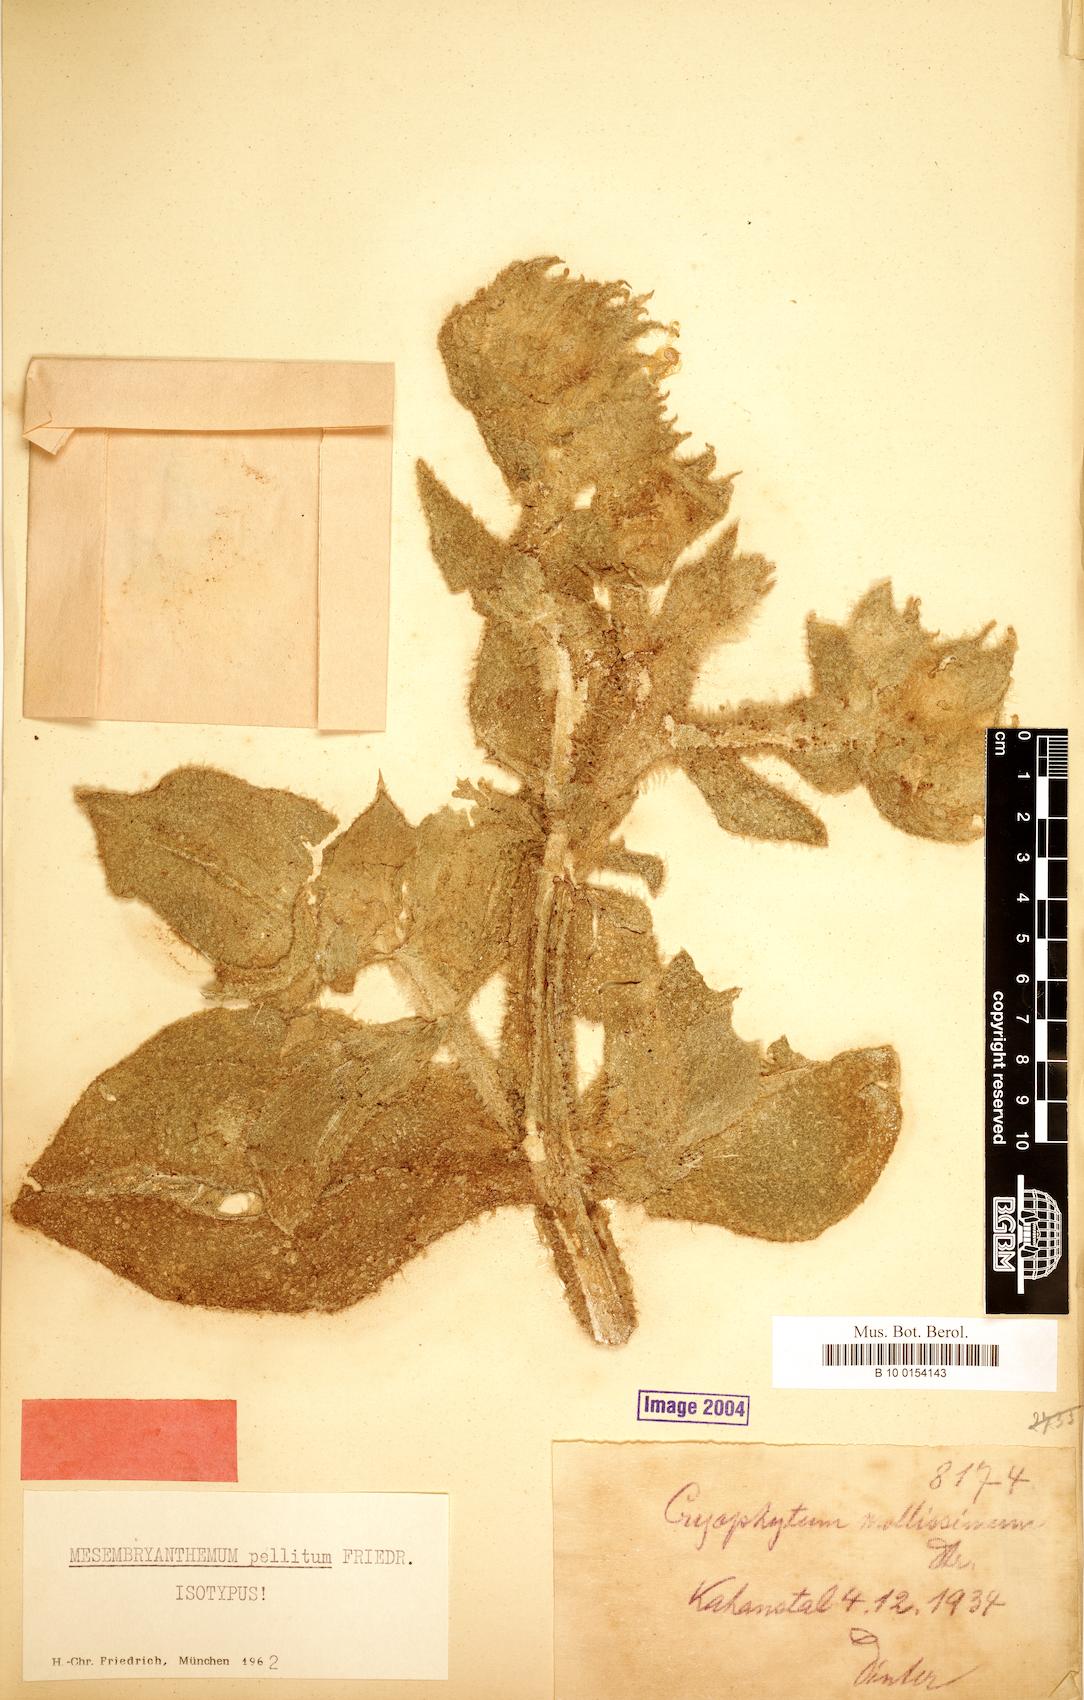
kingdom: Plantae
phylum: Tracheophyta
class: Magnoliopsida
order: Caryophyllales
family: Aizoaceae
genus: Mesembryanthemum
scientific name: Mesembryanthemum pellitum
